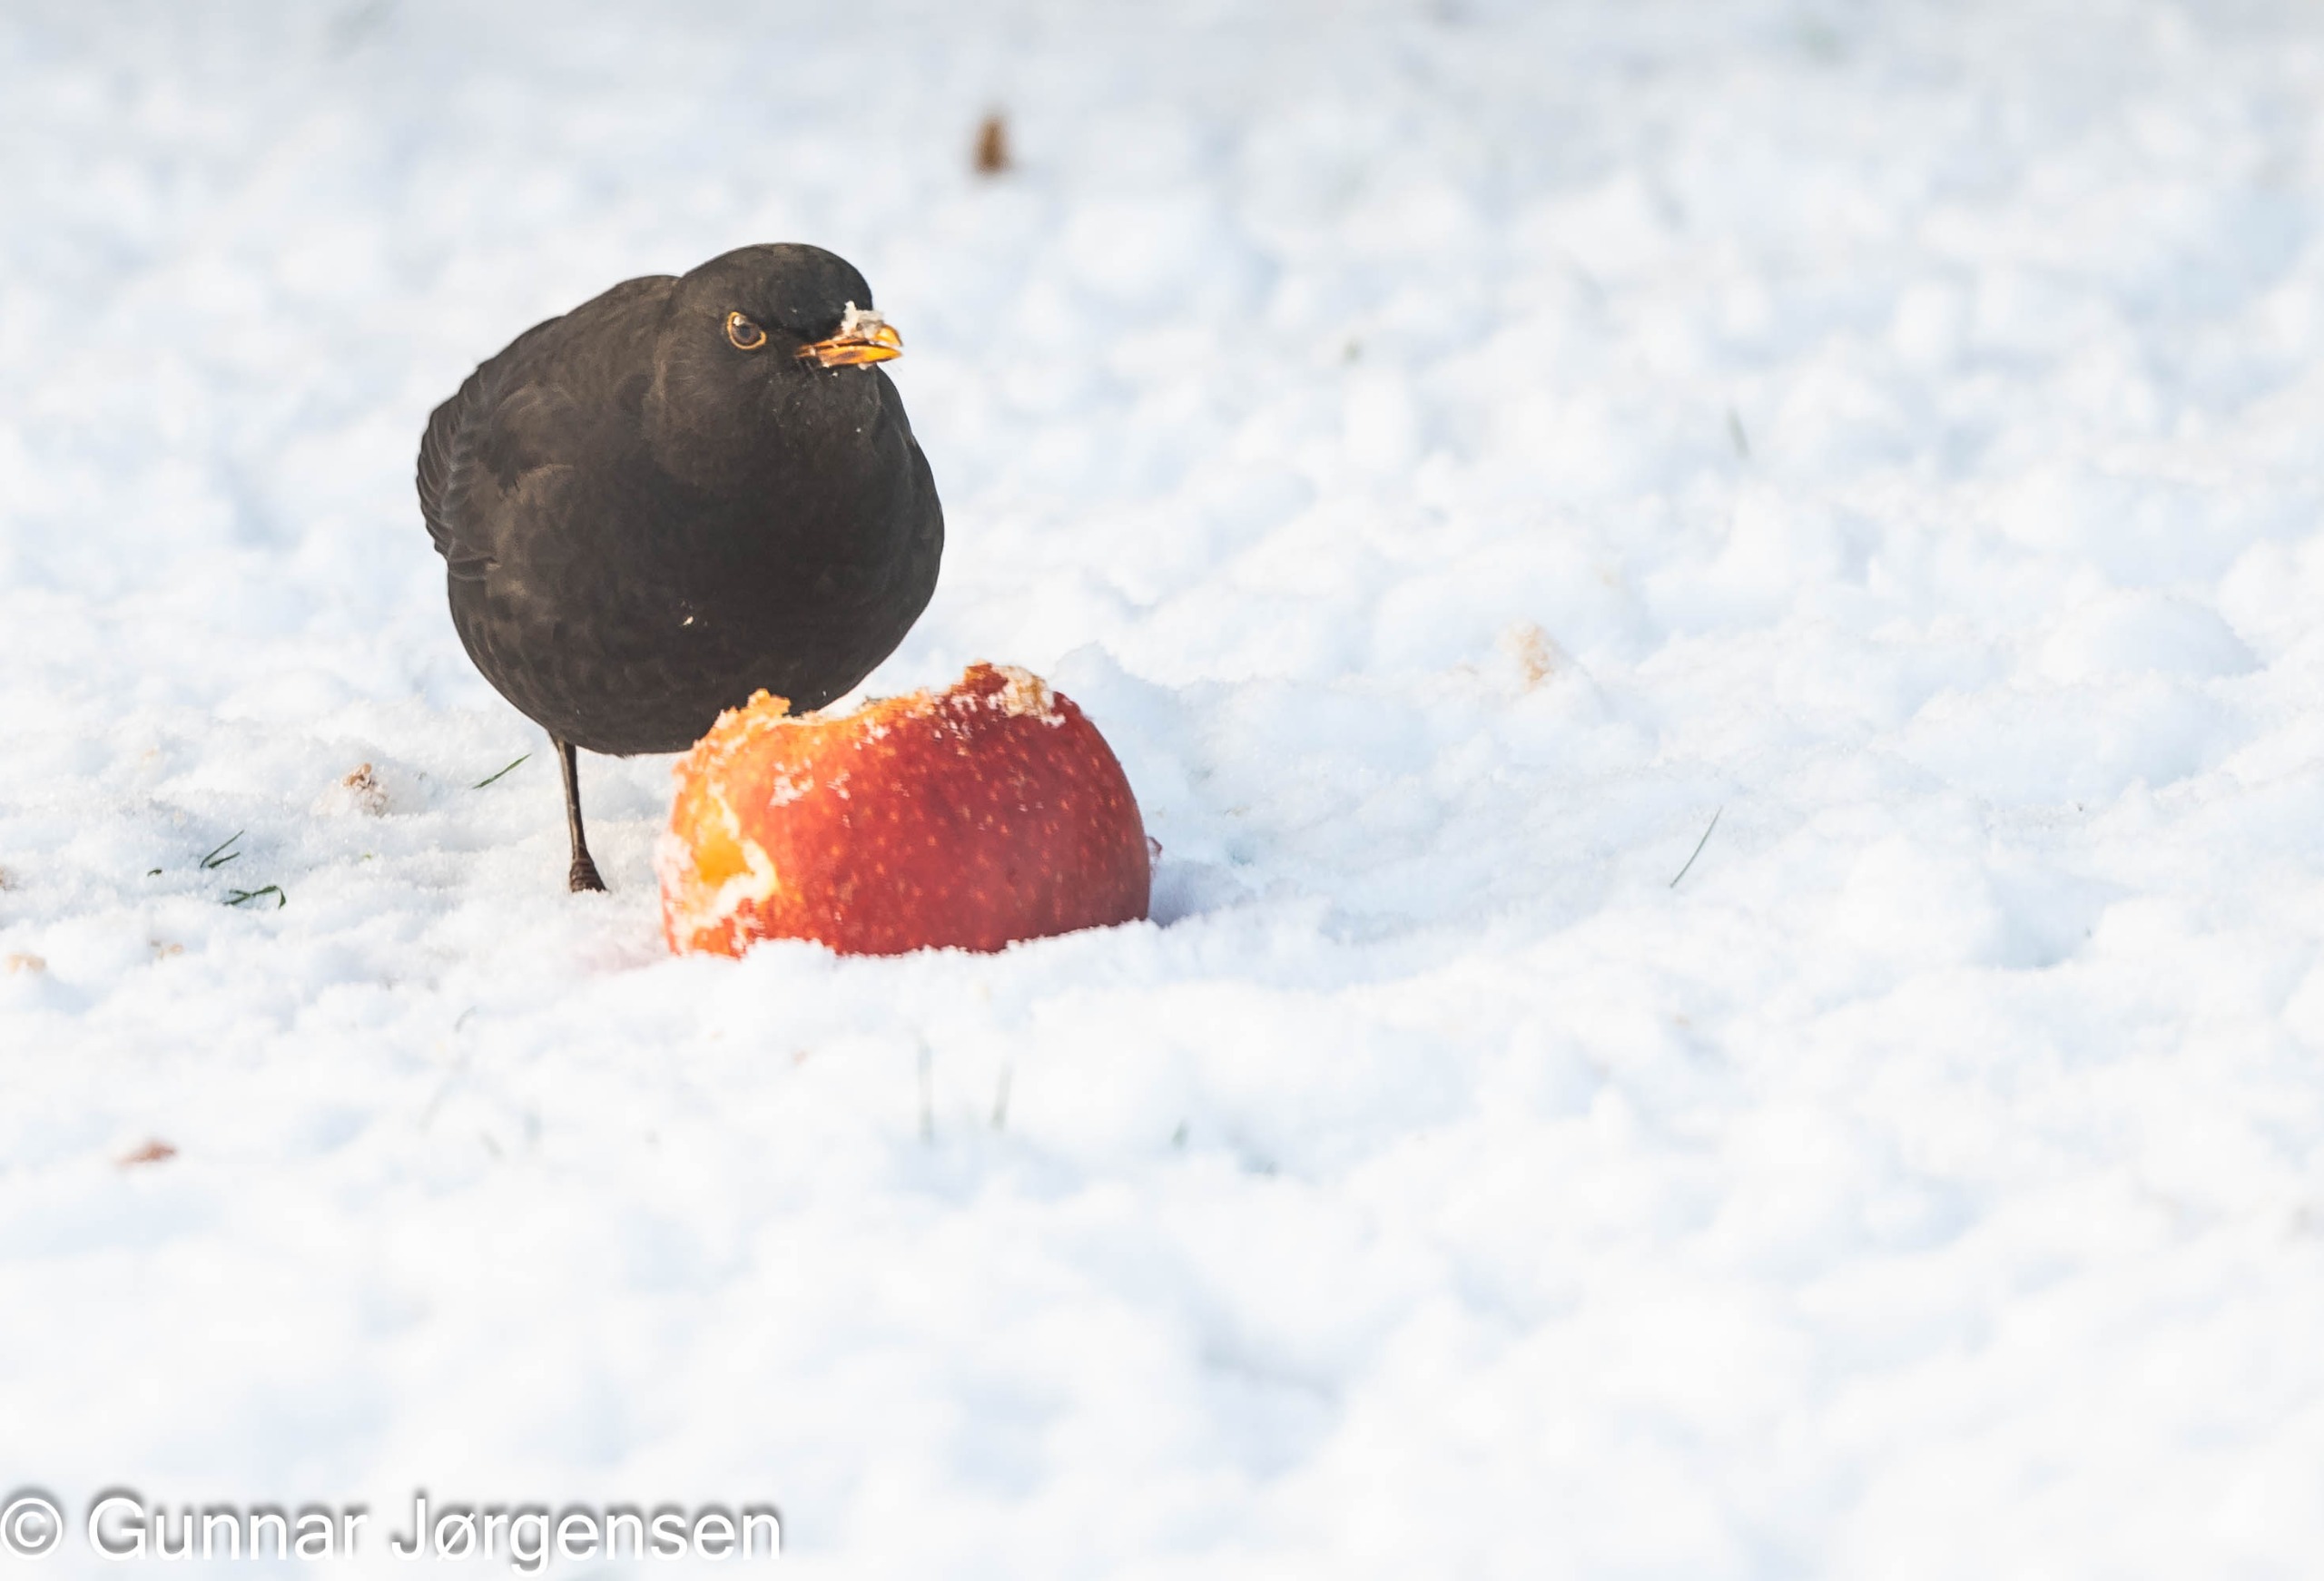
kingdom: Animalia
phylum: Chordata
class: Aves
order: Passeriformes
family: Turdidae
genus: Turdus
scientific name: Turdus merula
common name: Solsort
